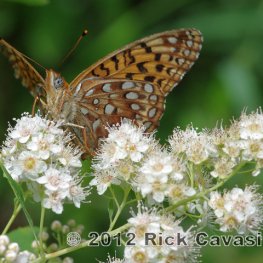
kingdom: Animalia
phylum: Arthropoda
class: Insecta
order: Lepidoptera
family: Nymphalidae
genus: Speyeria
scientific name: Speyeria atlantis
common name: Atlantis Fritillary
